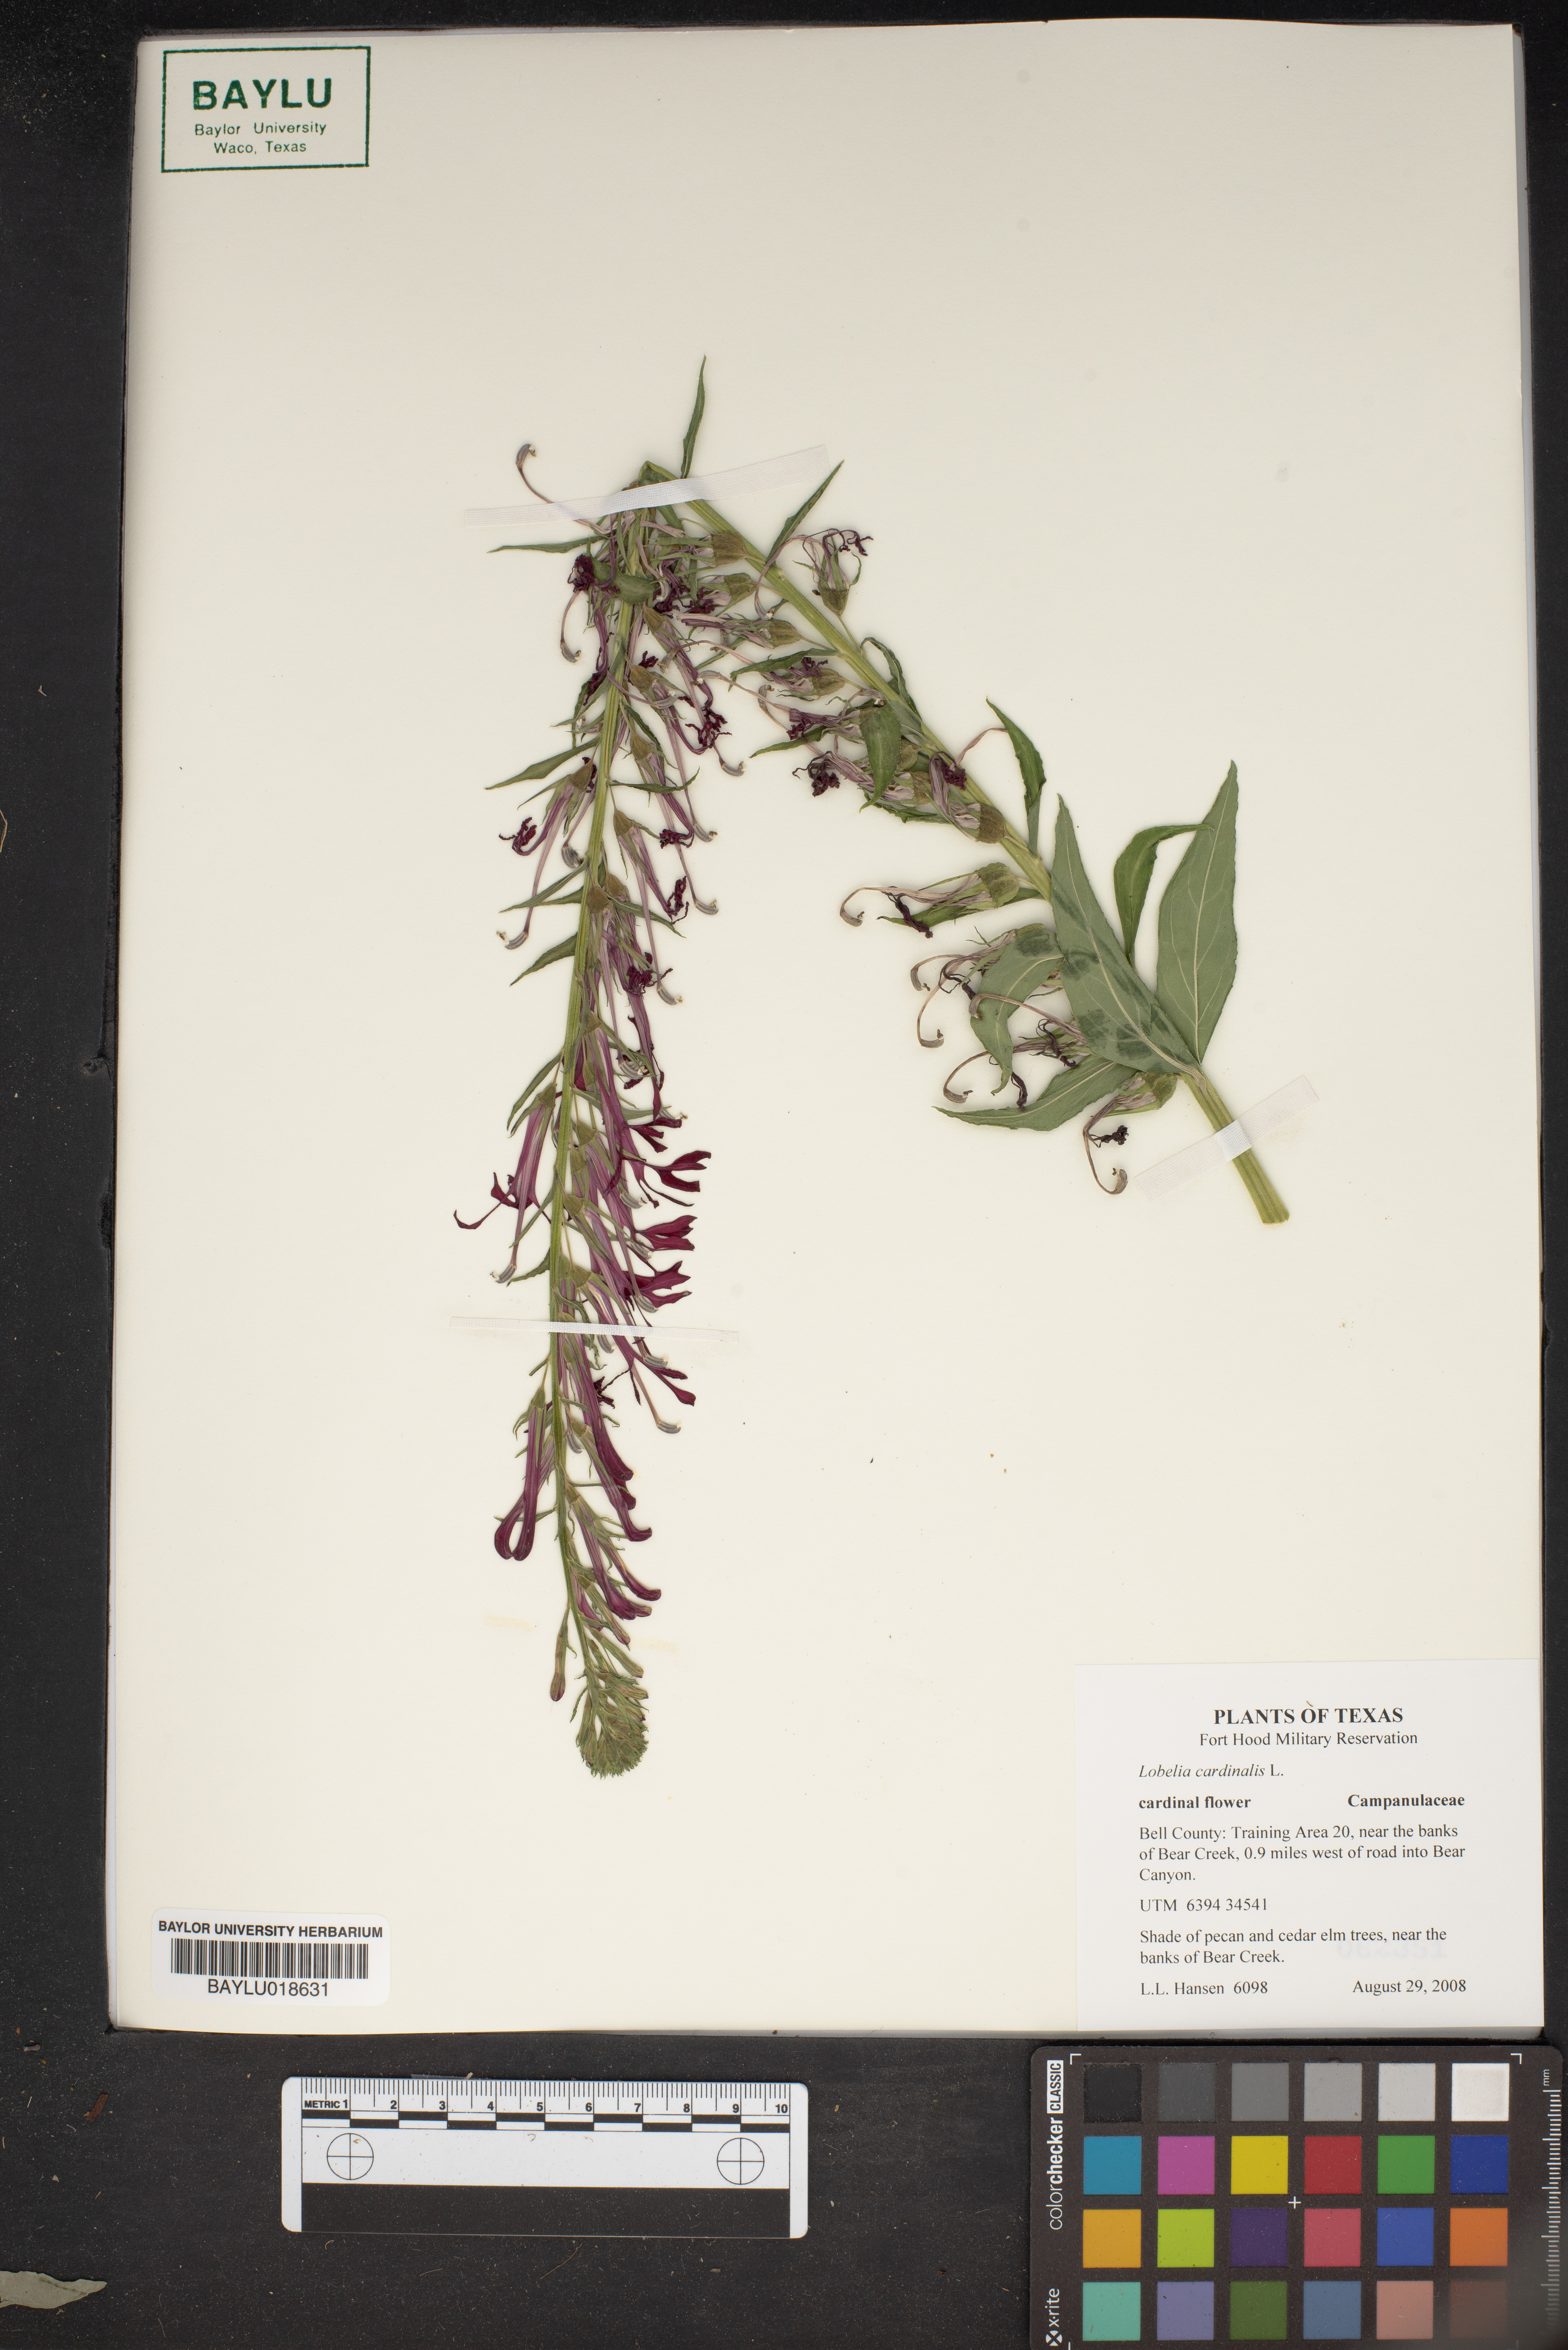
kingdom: Plantae
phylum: Tracheophyta
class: Magnoliopsida
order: Asterales
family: Campanulaceae
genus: Lobelia
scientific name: Lobelia cardinalis
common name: Cardinal flower
